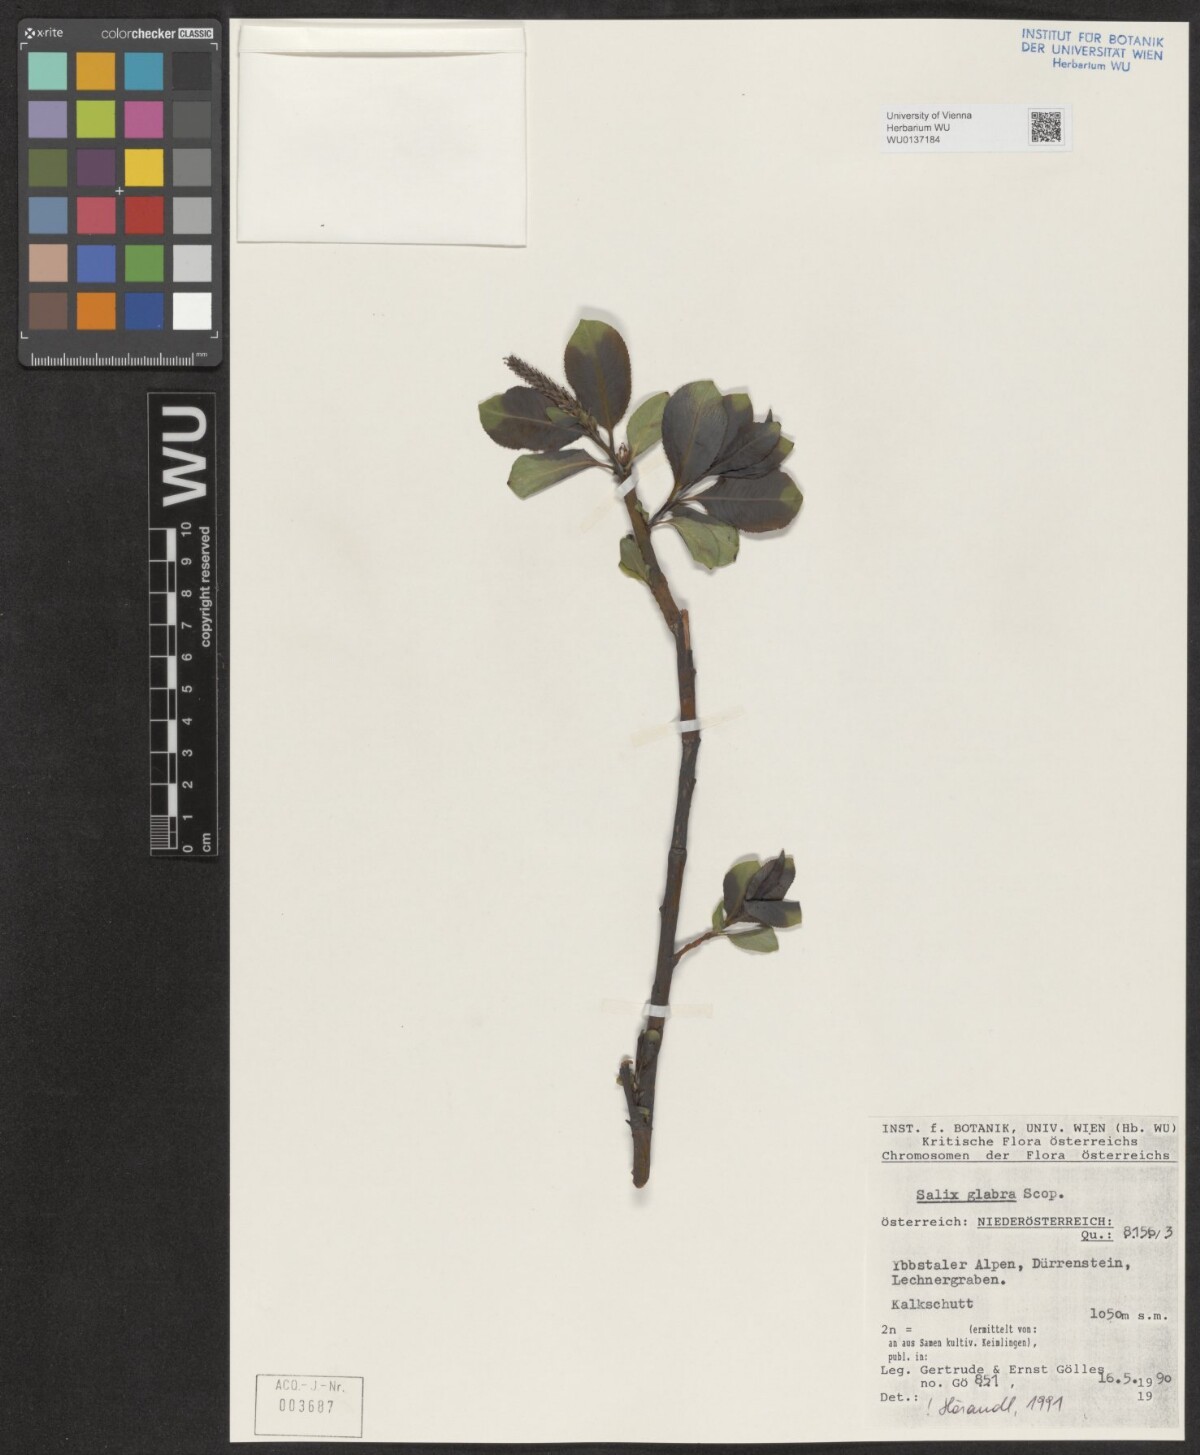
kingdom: Plantae
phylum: Tracheophyta
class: Magnoliopsida
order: Malpighiales
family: Salicaceae
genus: Salix
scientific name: Salix glabra
